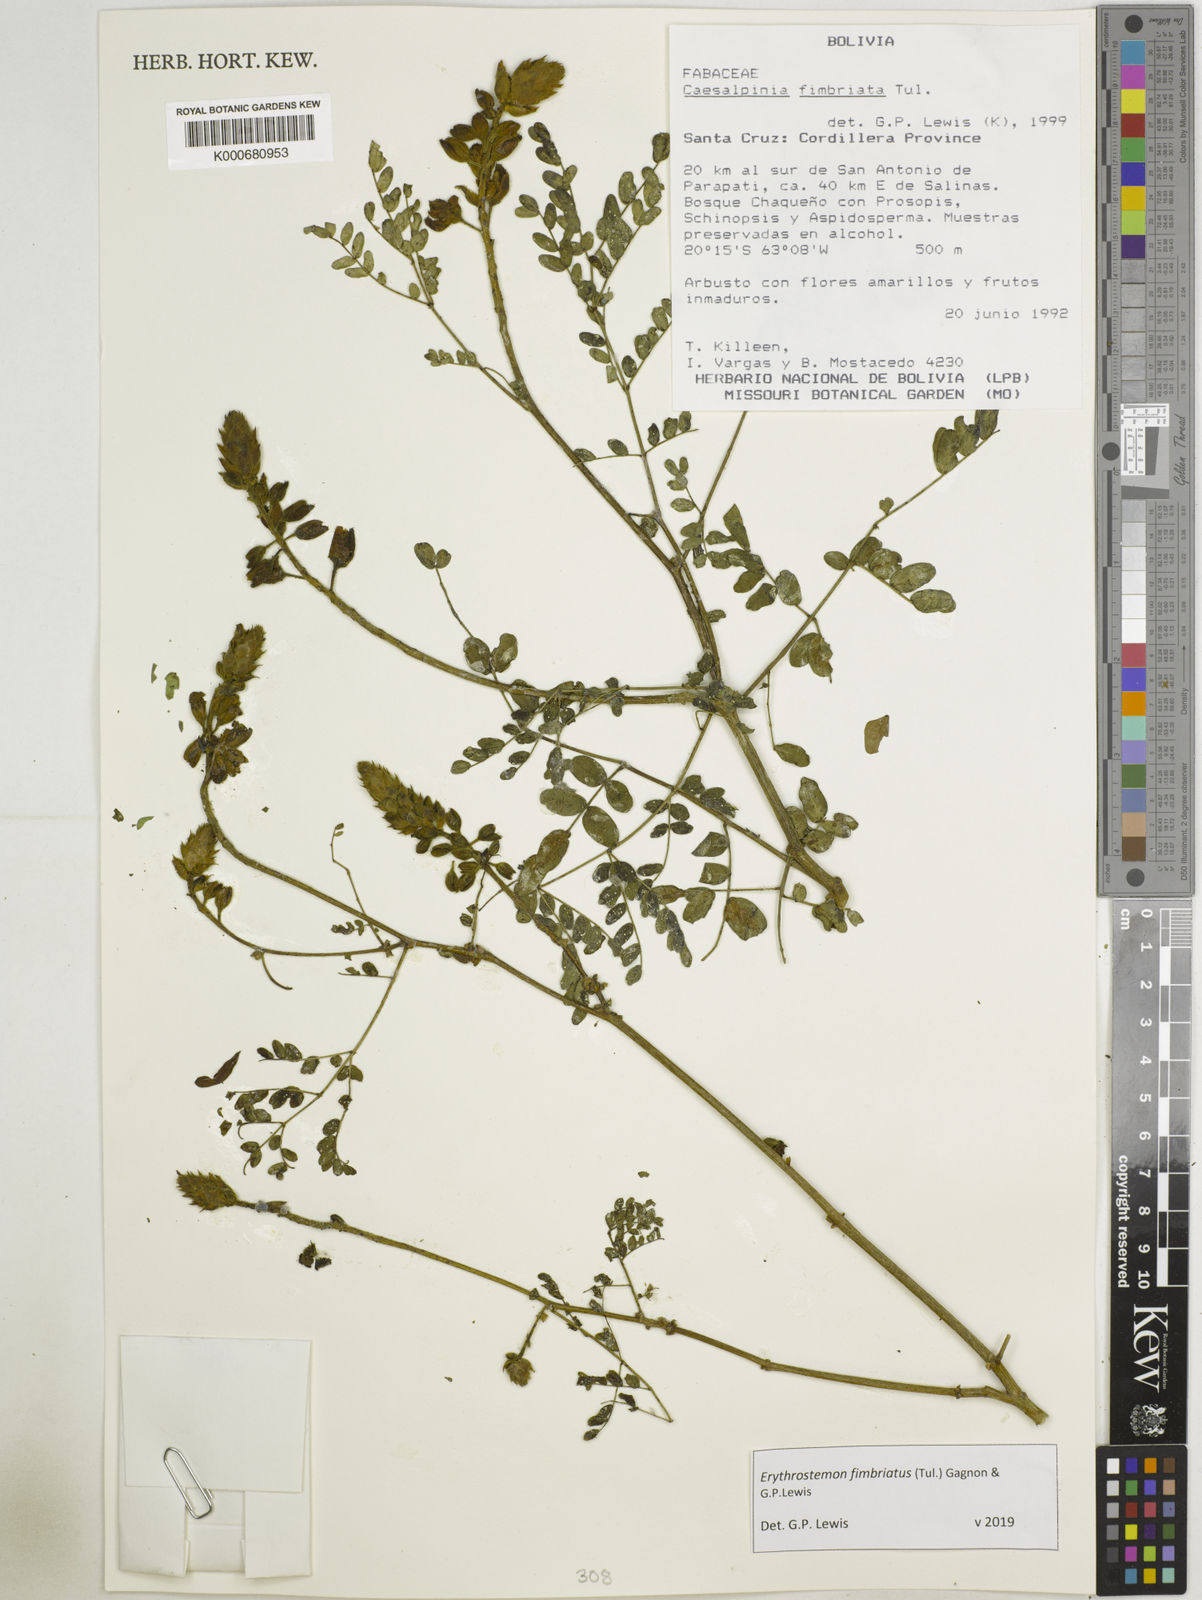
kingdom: Plantae
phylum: Tracheophyta
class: Magnoliopsida
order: Fabales
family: Fabaceae
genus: Erythrostemon
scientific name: Erythrostemon fimbriatus
